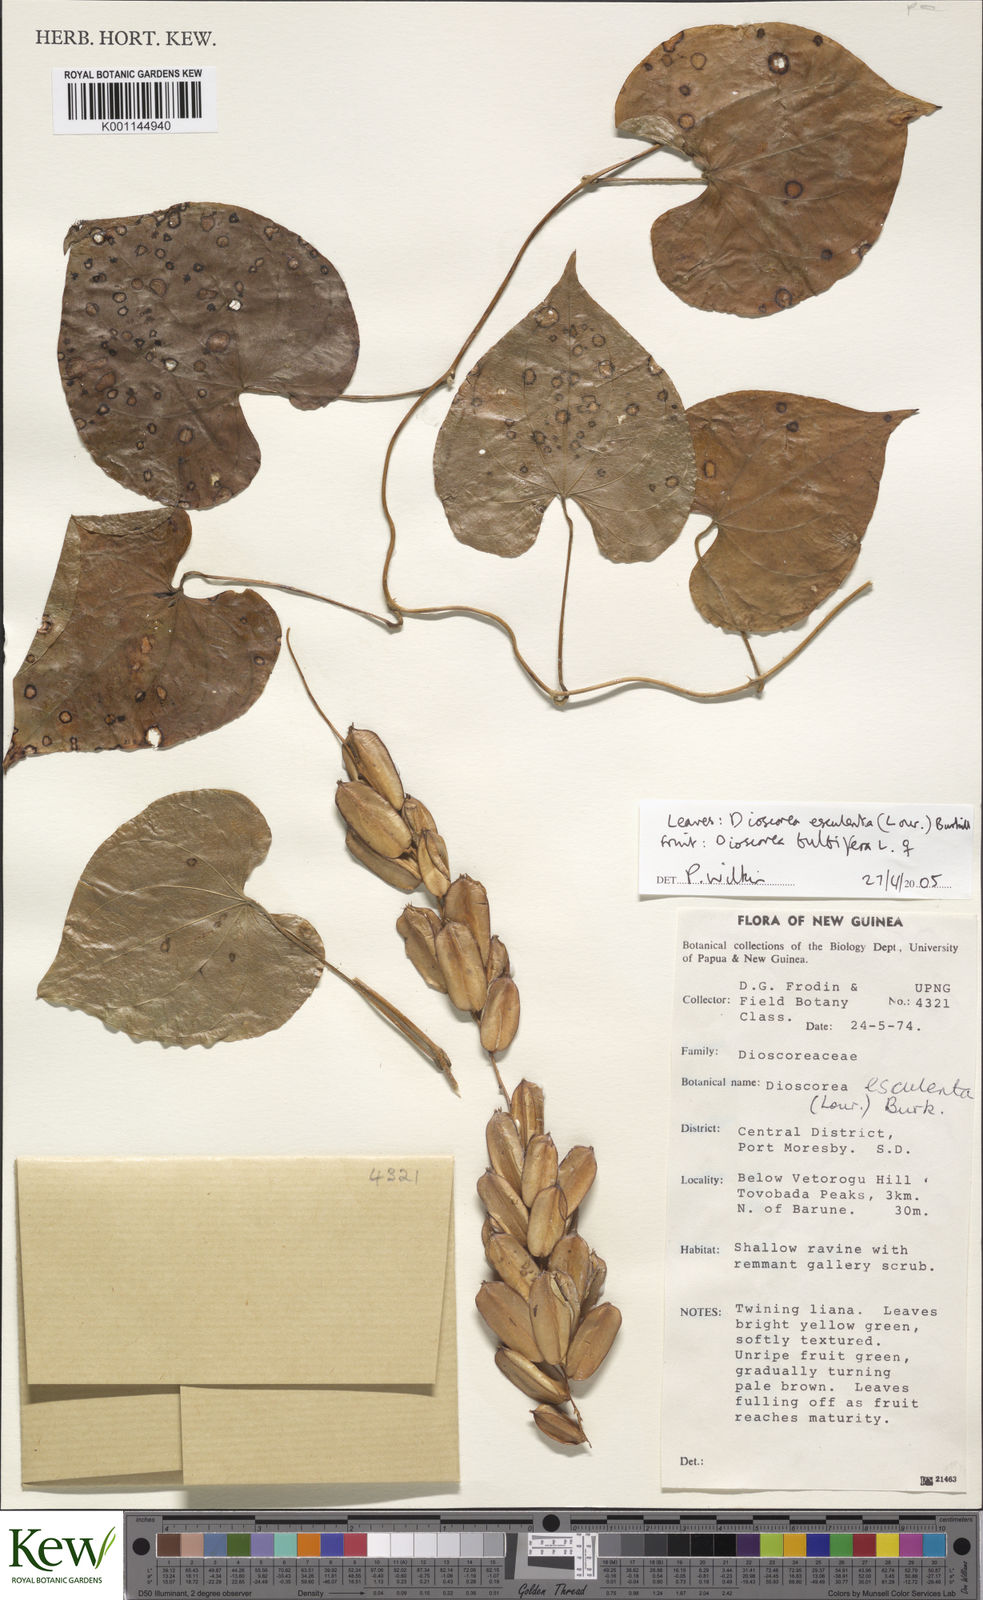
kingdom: Plantae
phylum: Tracheophyta
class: Liliopsida
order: Dioscoreales
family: Dioscoreaceae
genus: Dioscorea
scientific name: Dioscorea esculenta
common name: Chinese yam
